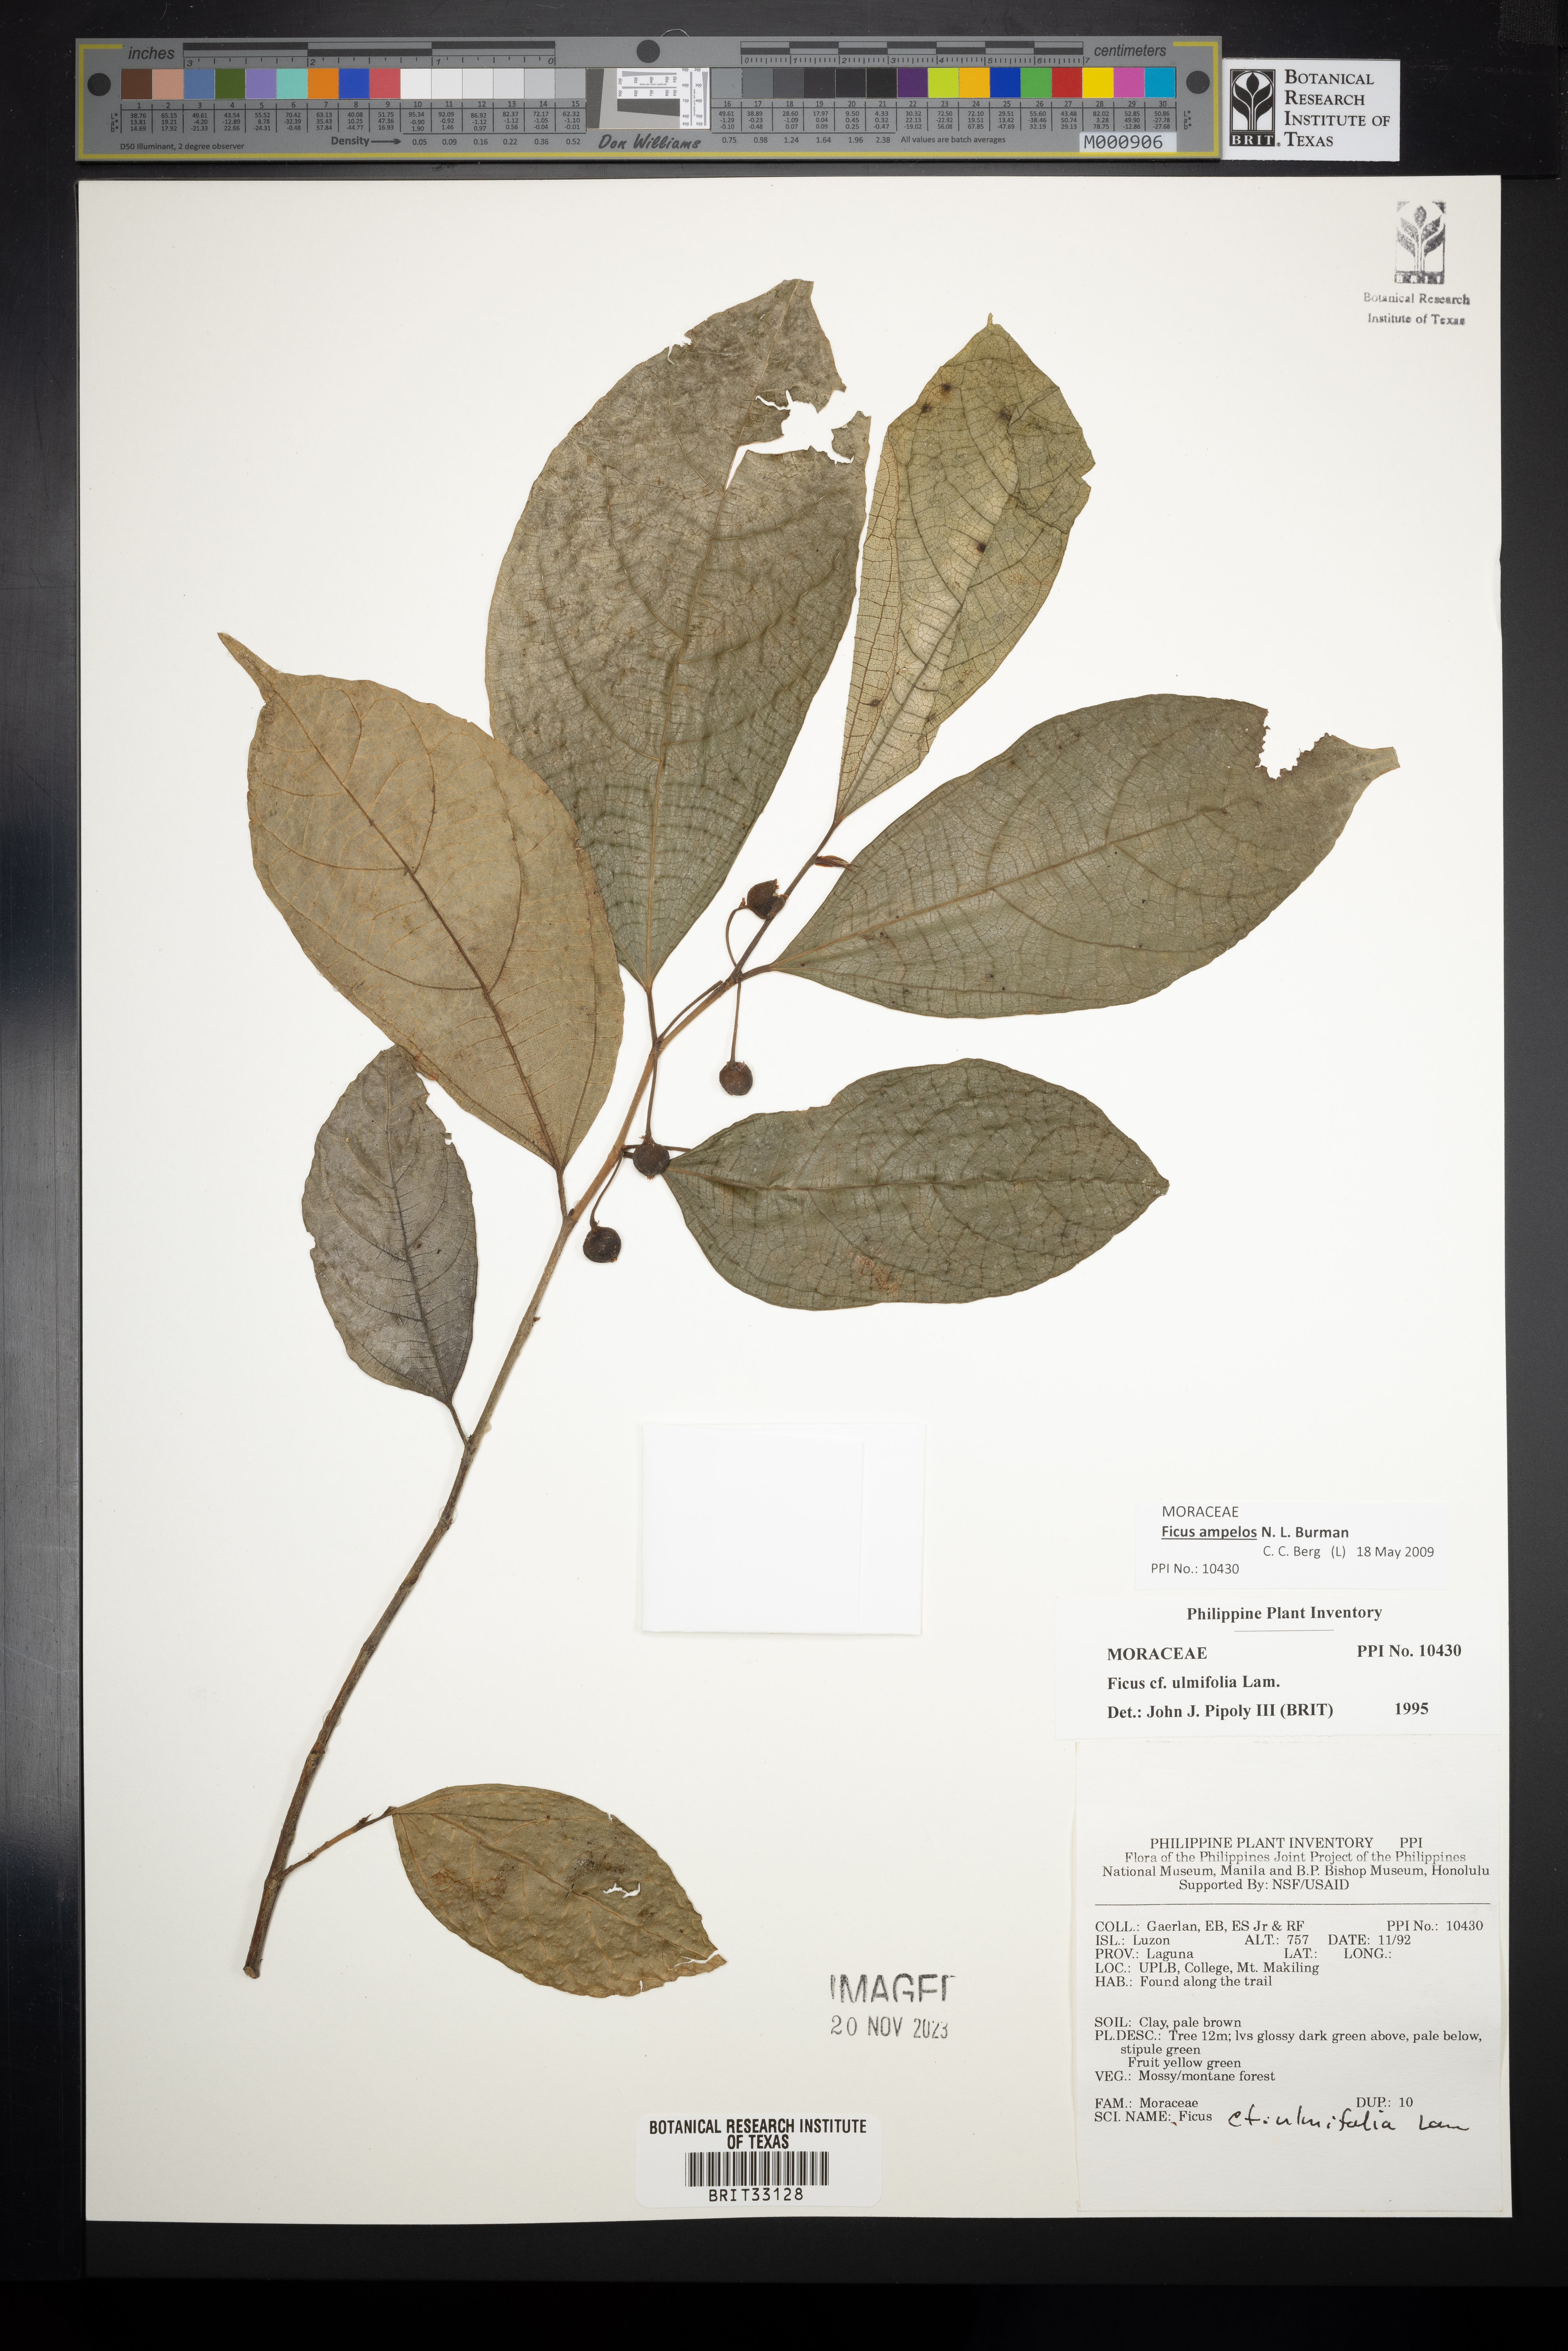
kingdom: Plantae
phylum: Tracheophyta
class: Magnoliopsida
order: Rosales
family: Moraceae
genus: Ficus
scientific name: Ficus ulmifolia
